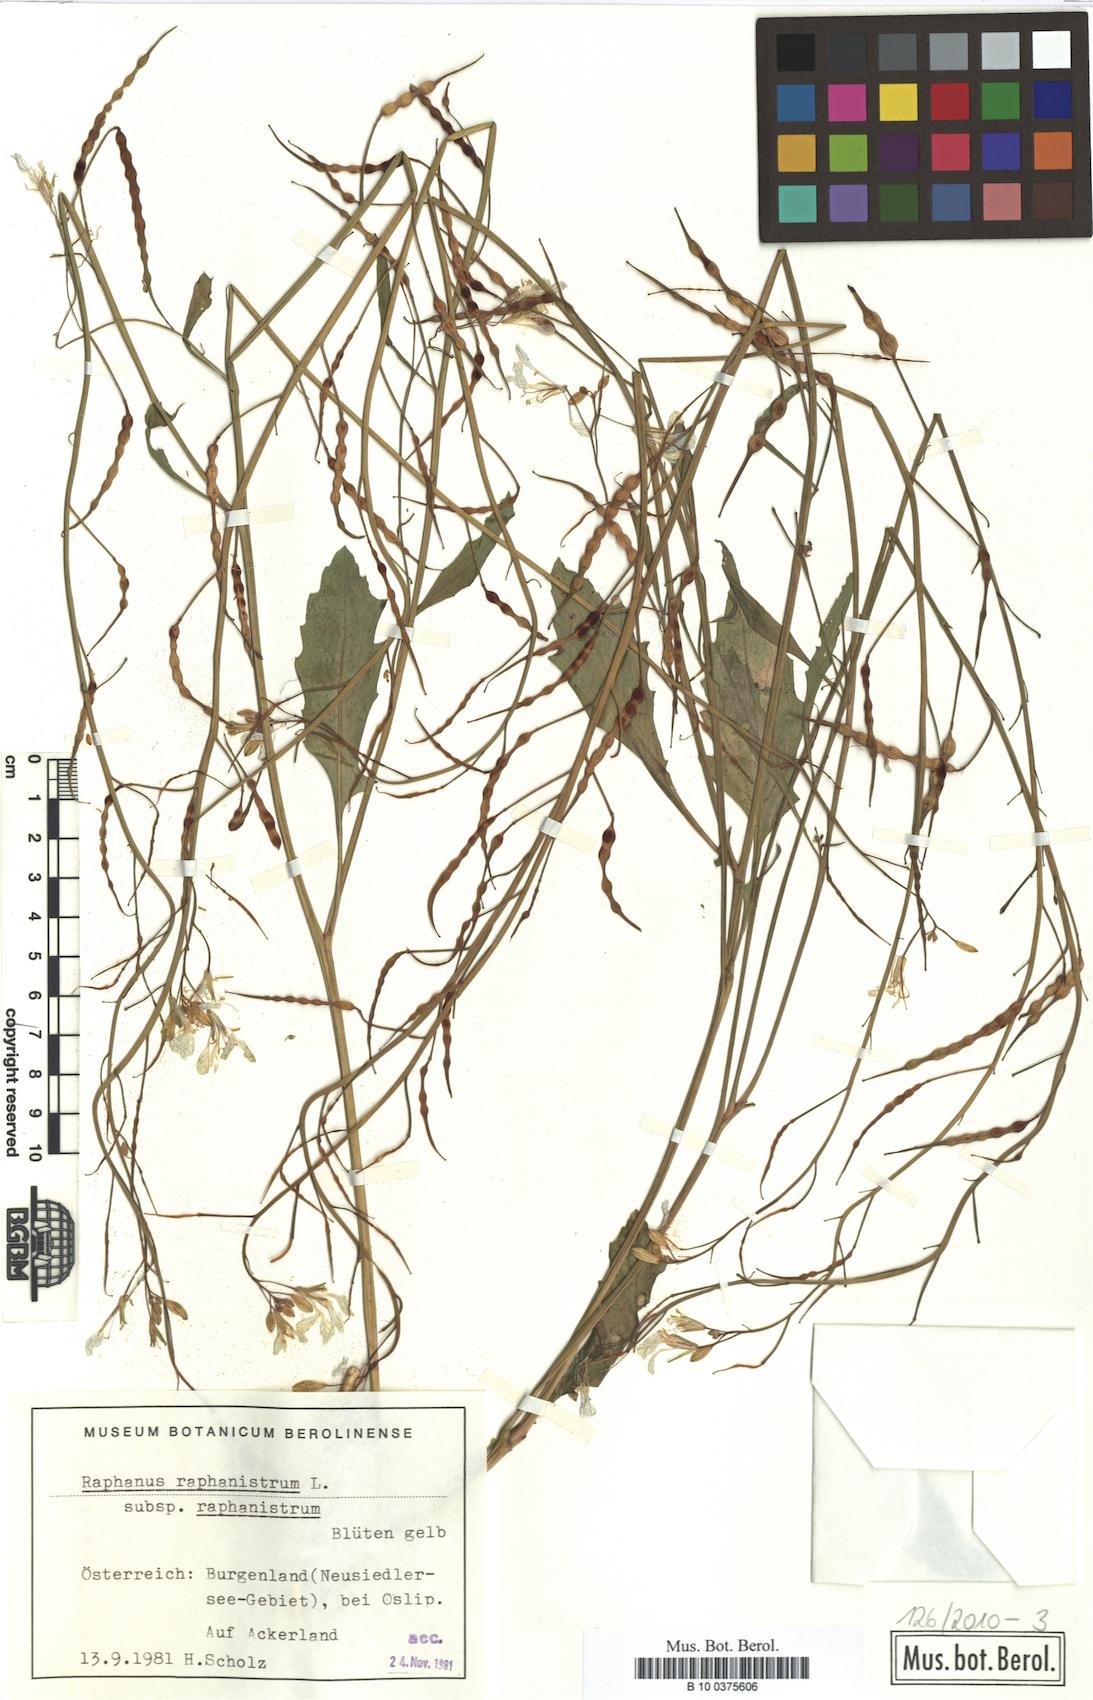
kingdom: Plantae
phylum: Tracheophyta
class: Magnoliopsida
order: Brassicales
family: Brassicaceae
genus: Raphanus
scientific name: Raphanus raphanistrum
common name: Wild radish
